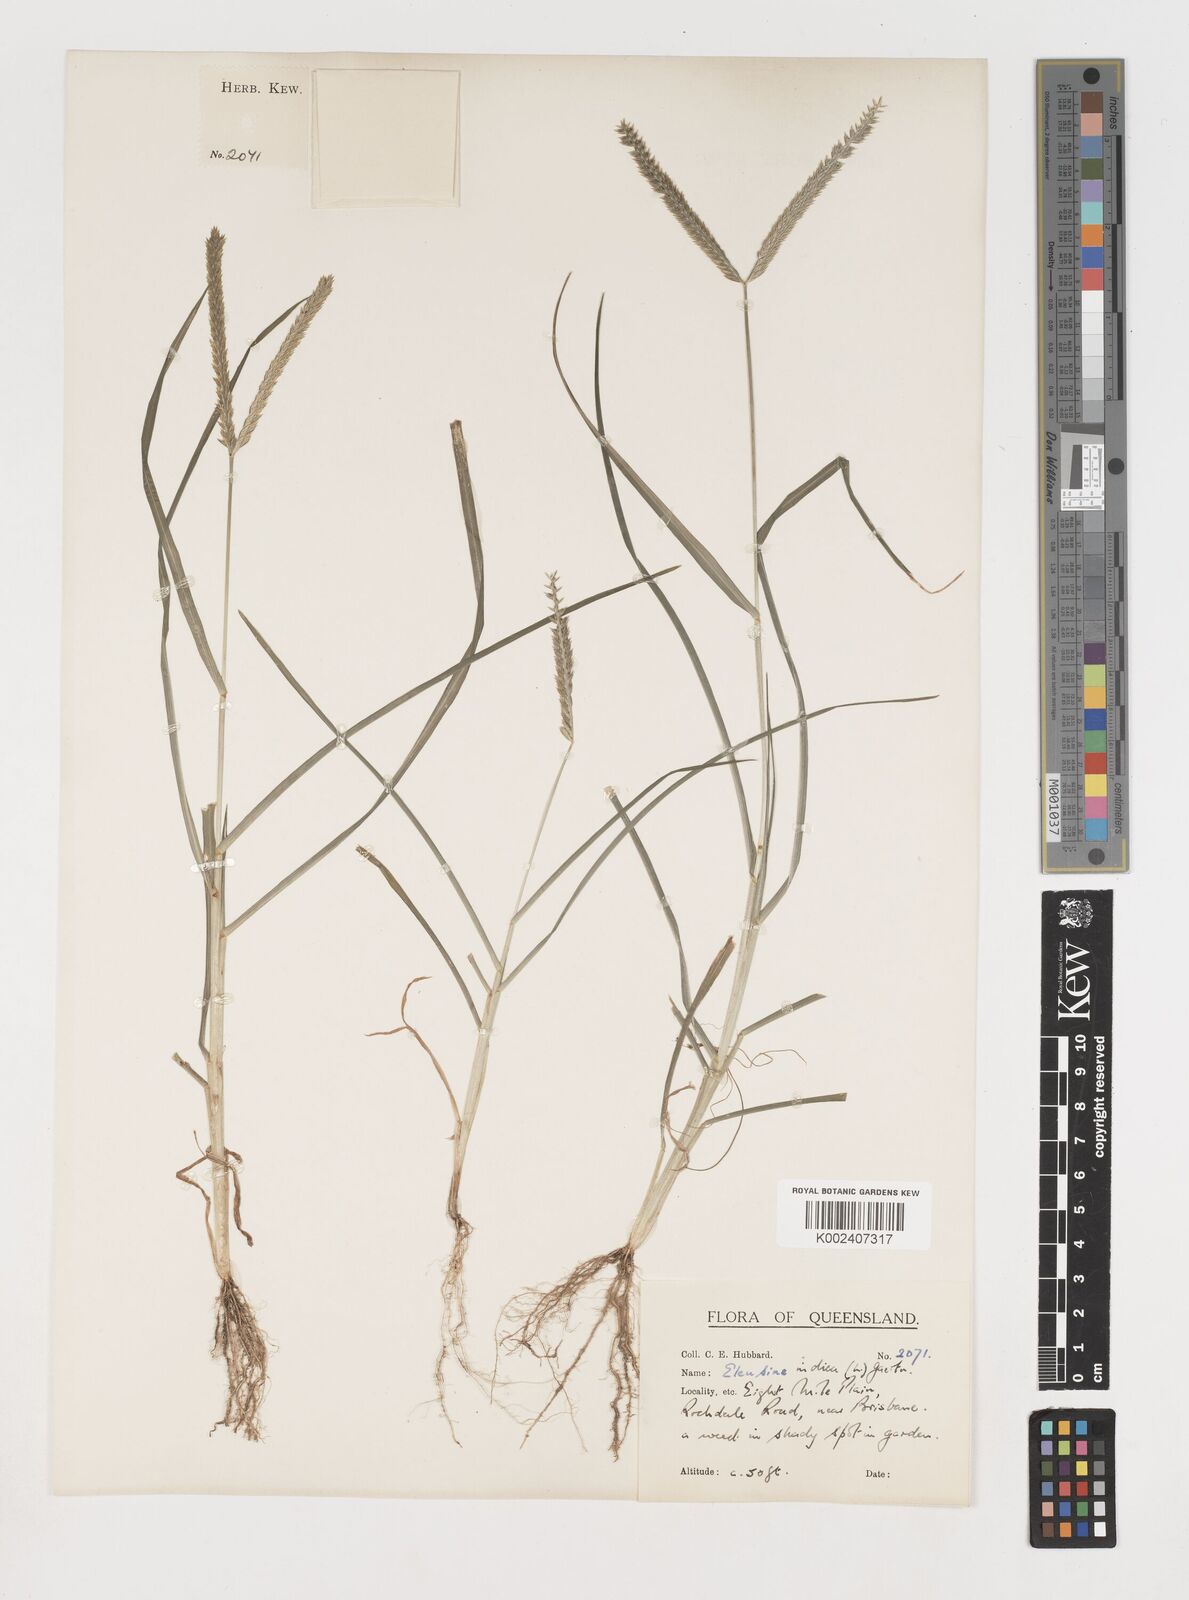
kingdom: Plantae
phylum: Tracheophyta
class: Liliopsida
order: Poales
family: Poaceae
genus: Eleusine
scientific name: Eleusine indica
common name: Yard-grass
